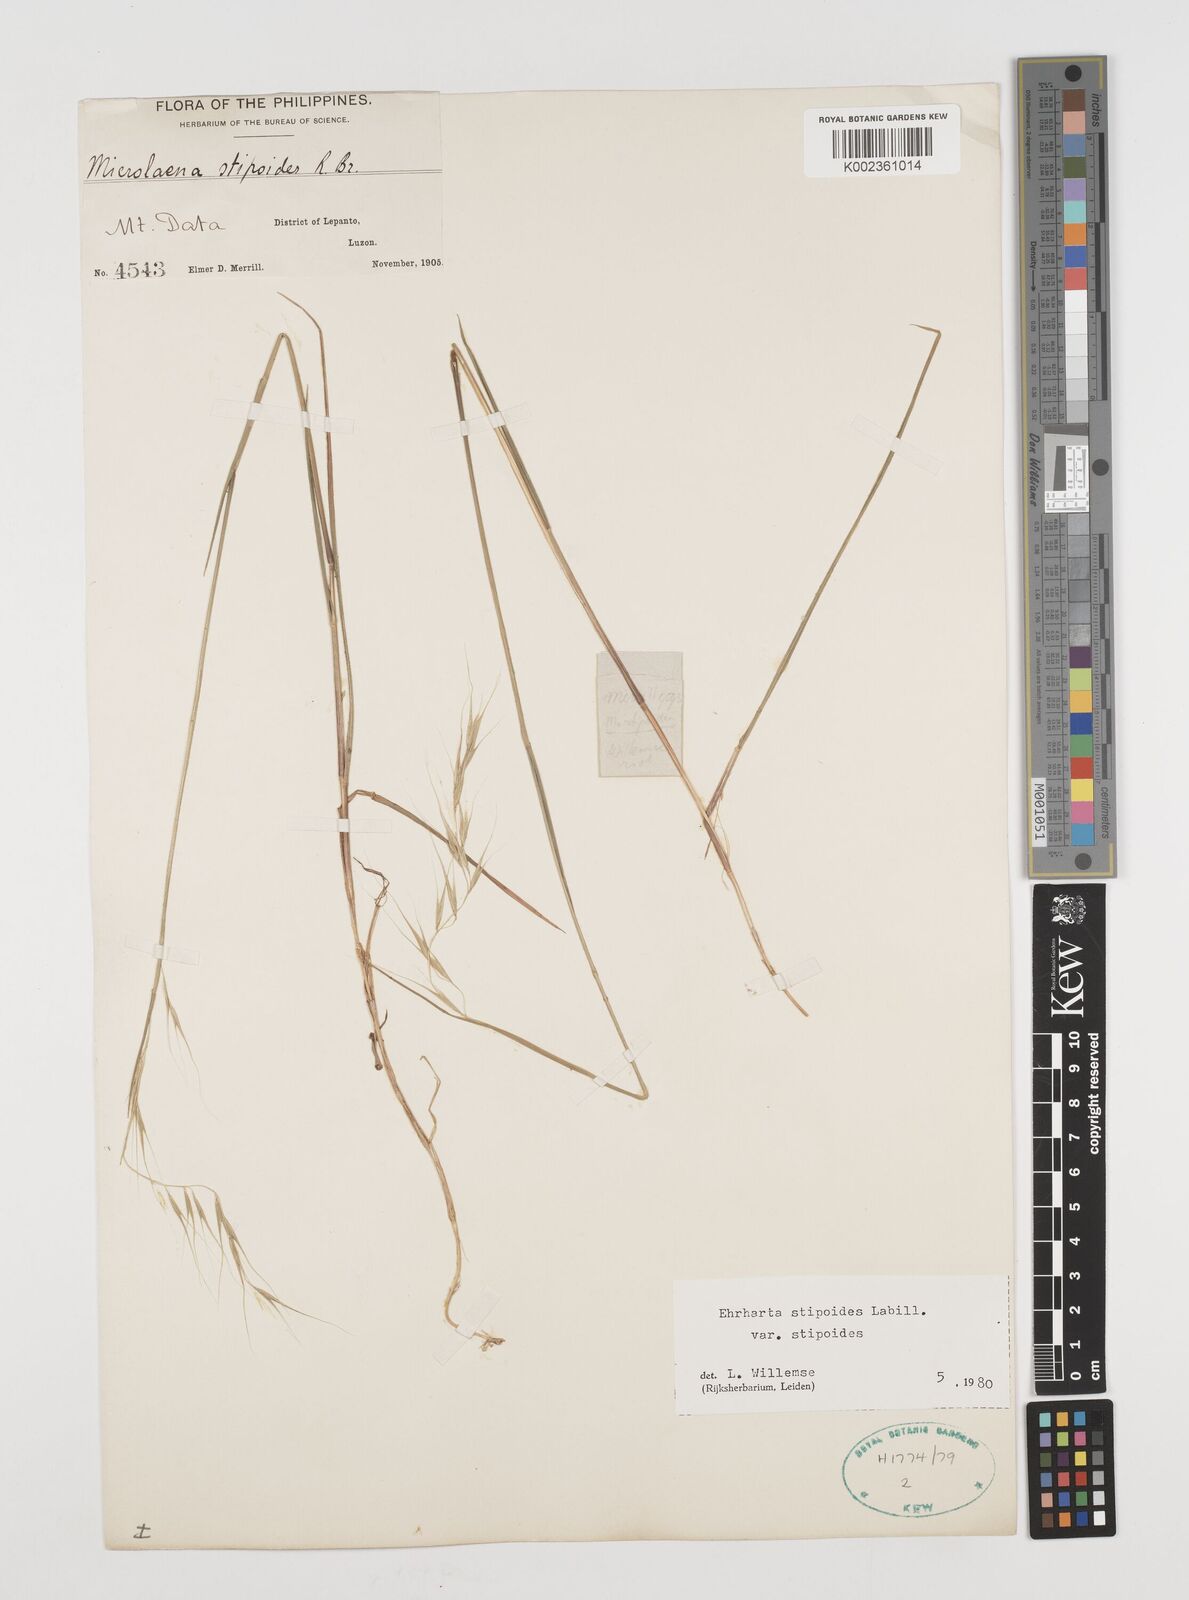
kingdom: Plantae
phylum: Tracheophyta
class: Liliopsida
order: Poales
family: Poaceae
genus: Microlaena
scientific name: Microlaena stipoides
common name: Meadow ricegrass
